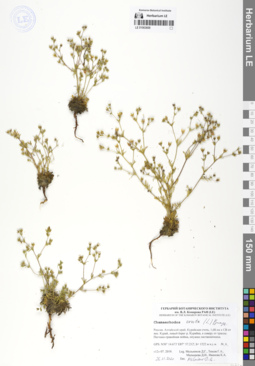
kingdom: Plantae
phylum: Tracheophyta
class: Magnoliopsida
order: Rosales
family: Rosaceae
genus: Chamaerhodos
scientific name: Chamaerhodos erecta
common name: American chamaerhodos
